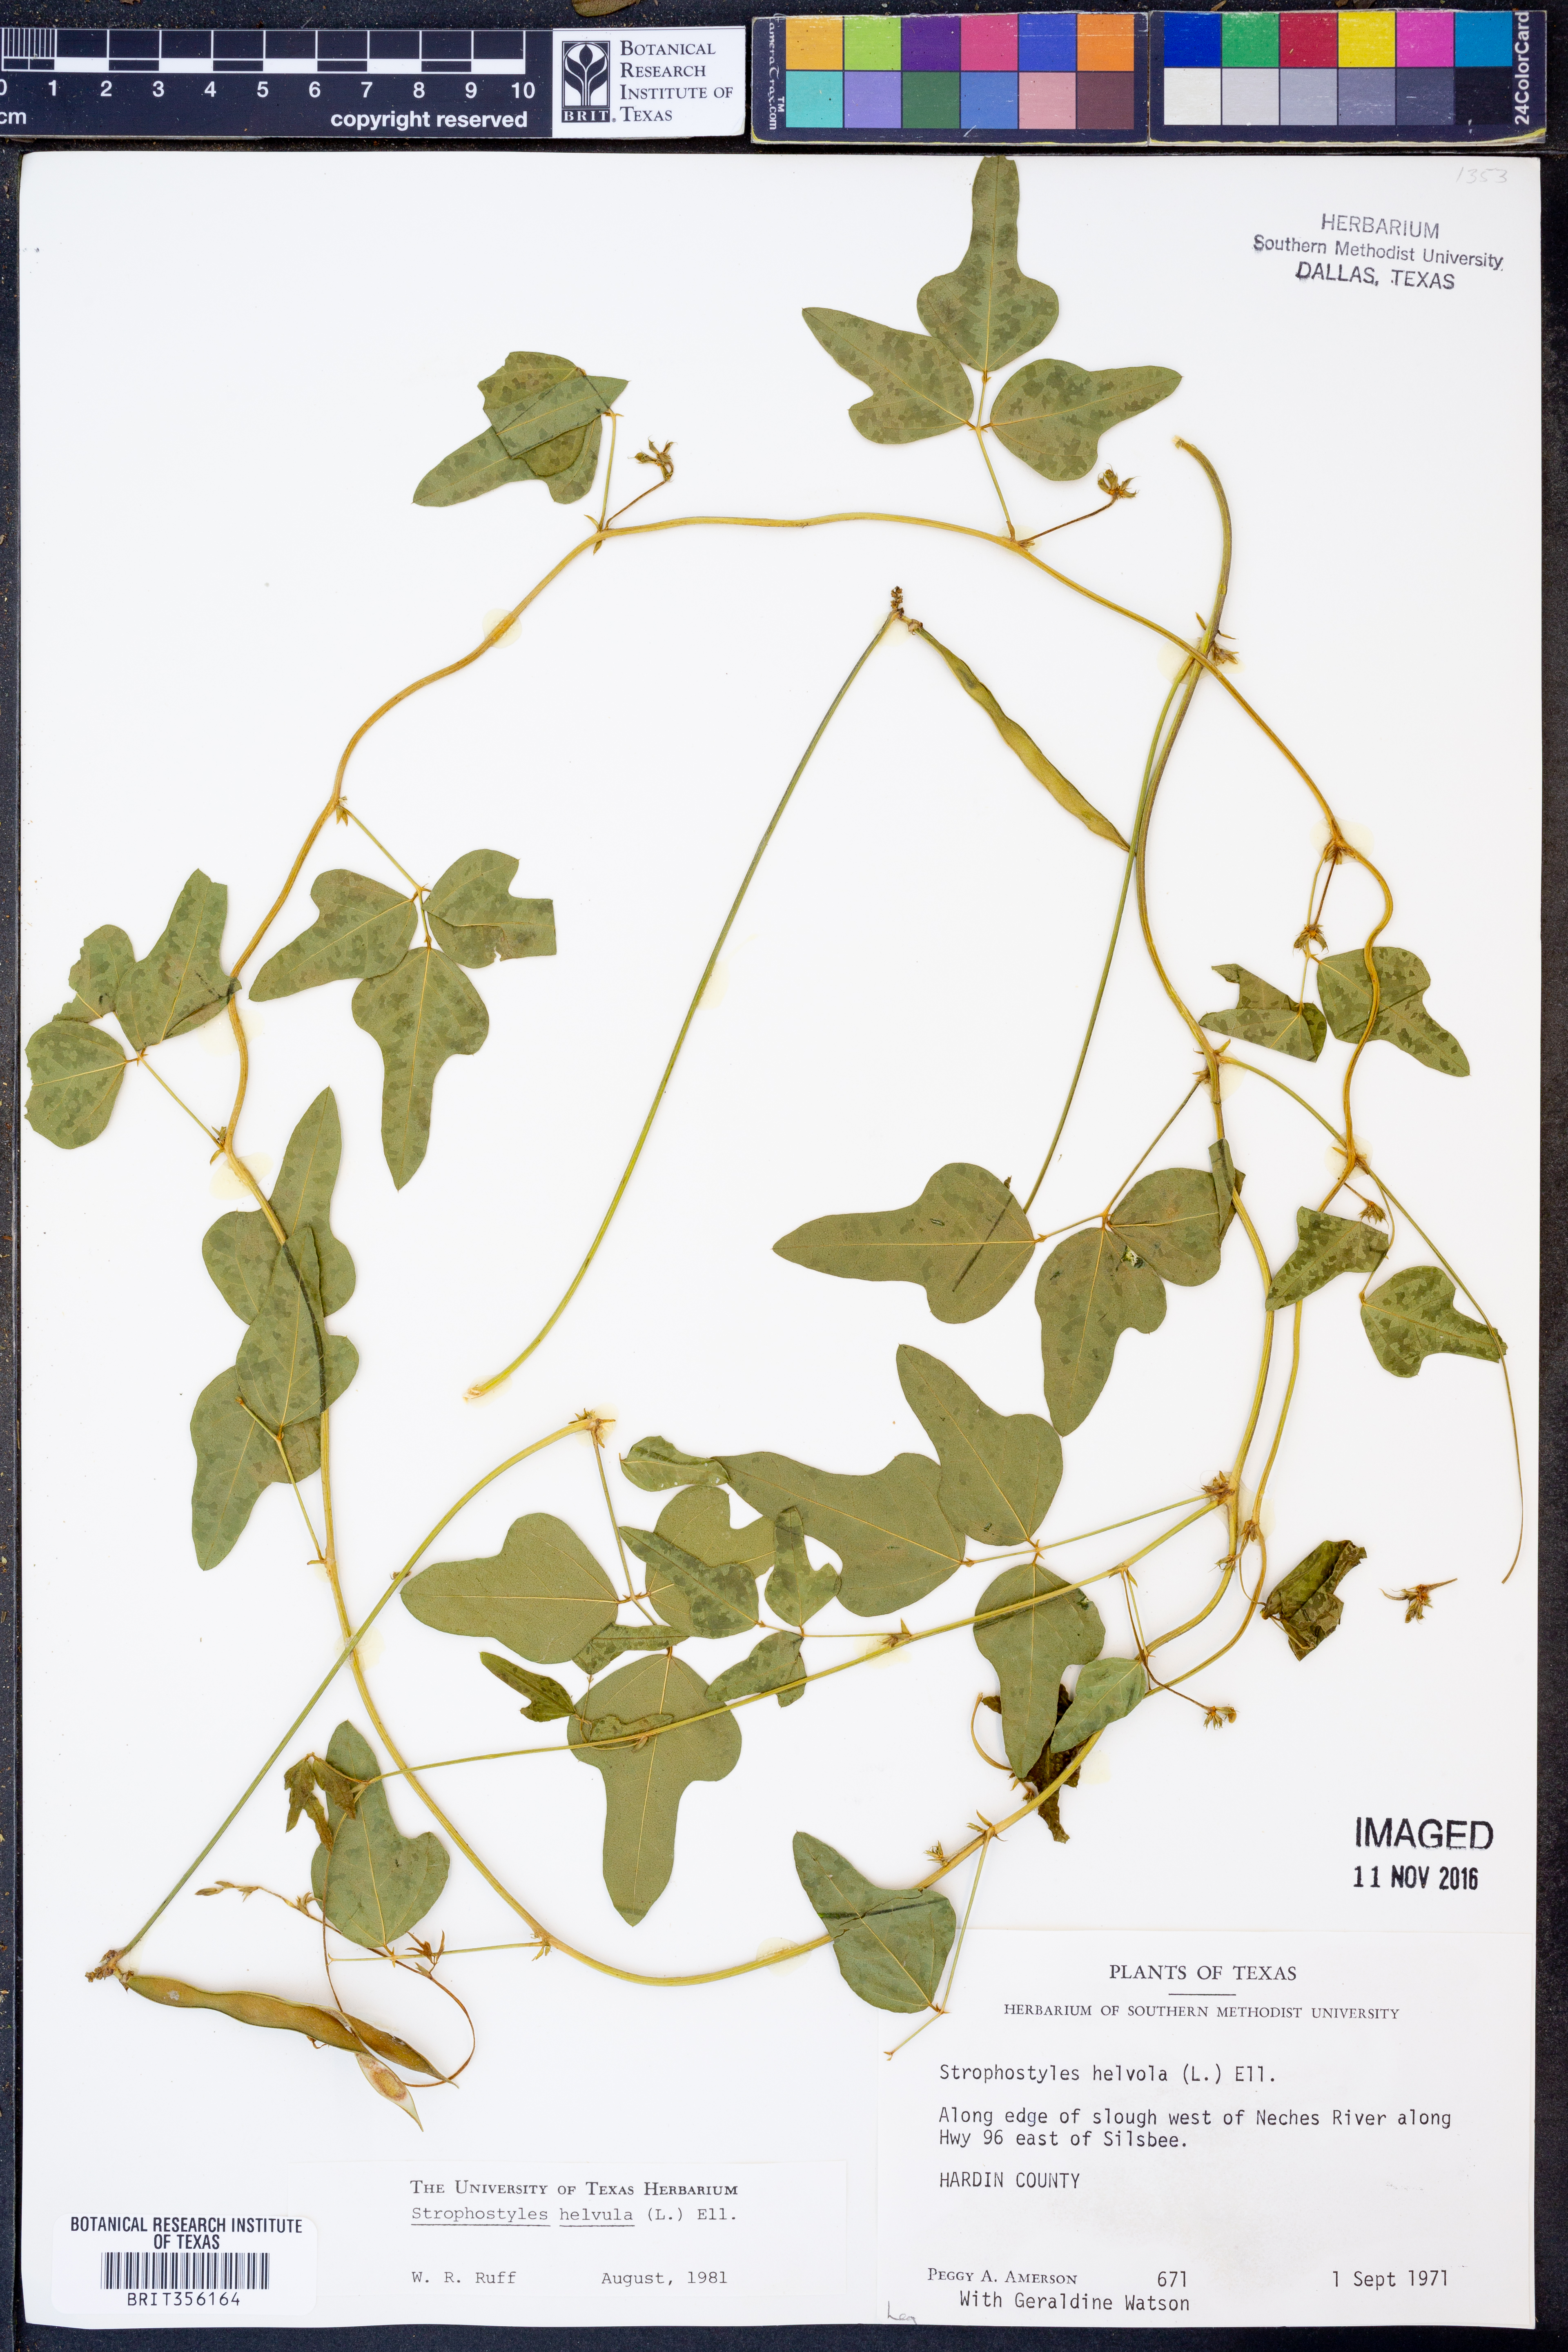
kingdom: Plantae
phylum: Tracheophyta
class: Magnoliopsida
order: Fabales
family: Fabaceae
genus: Strophostyles
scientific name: Strophostyles helvula
